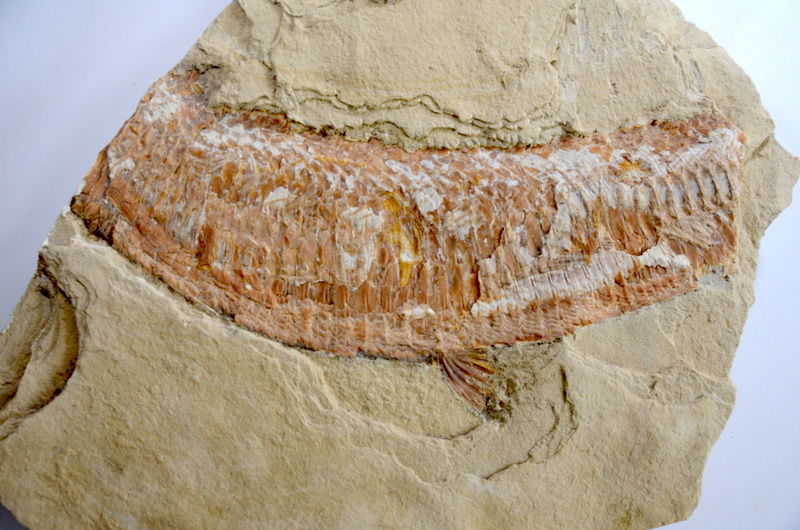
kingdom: Animalia
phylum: Chordata
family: Aspidorhynchidae
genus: Aspidorhynchus
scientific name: Aspidorhynchus acutirostris
